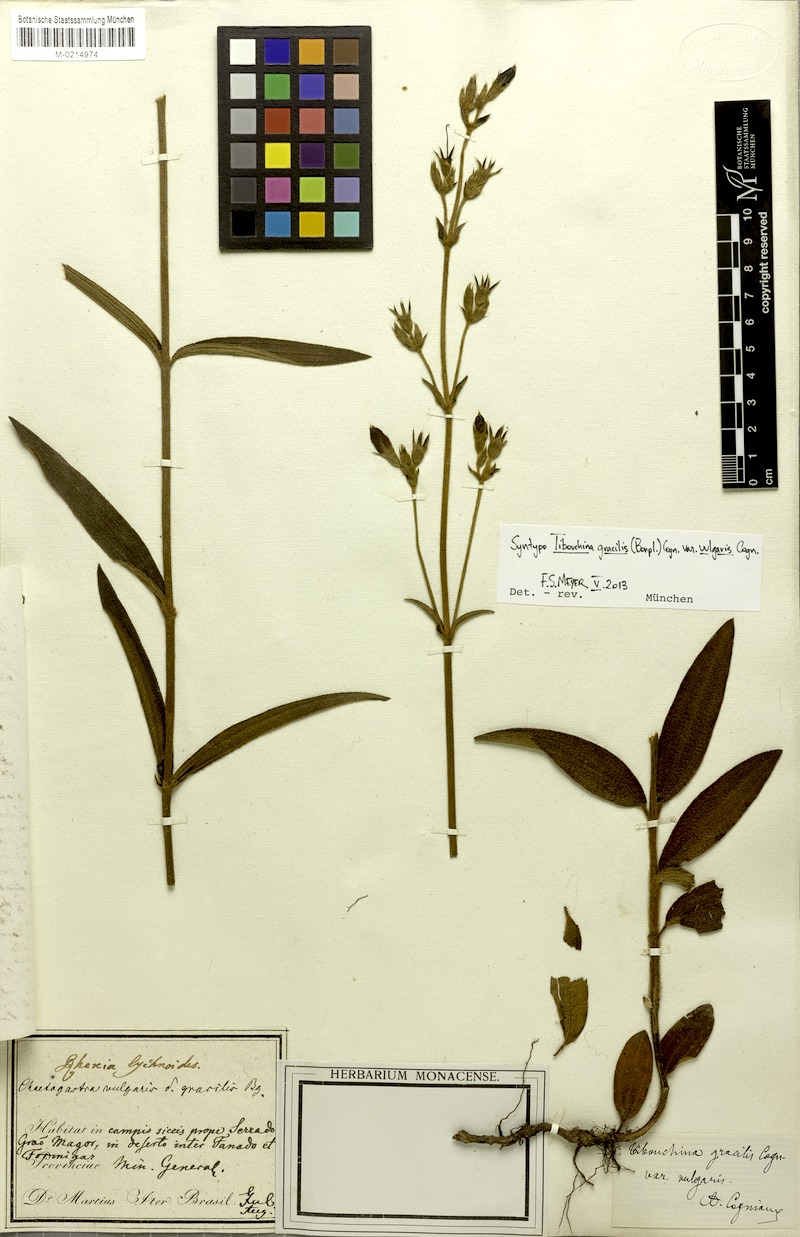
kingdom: Plantae
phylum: Tracheophyta
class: Magnoliopsida
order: Myrtales
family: Melastomataceae
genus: Chaetogastra
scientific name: Chaetogastra gracilis
